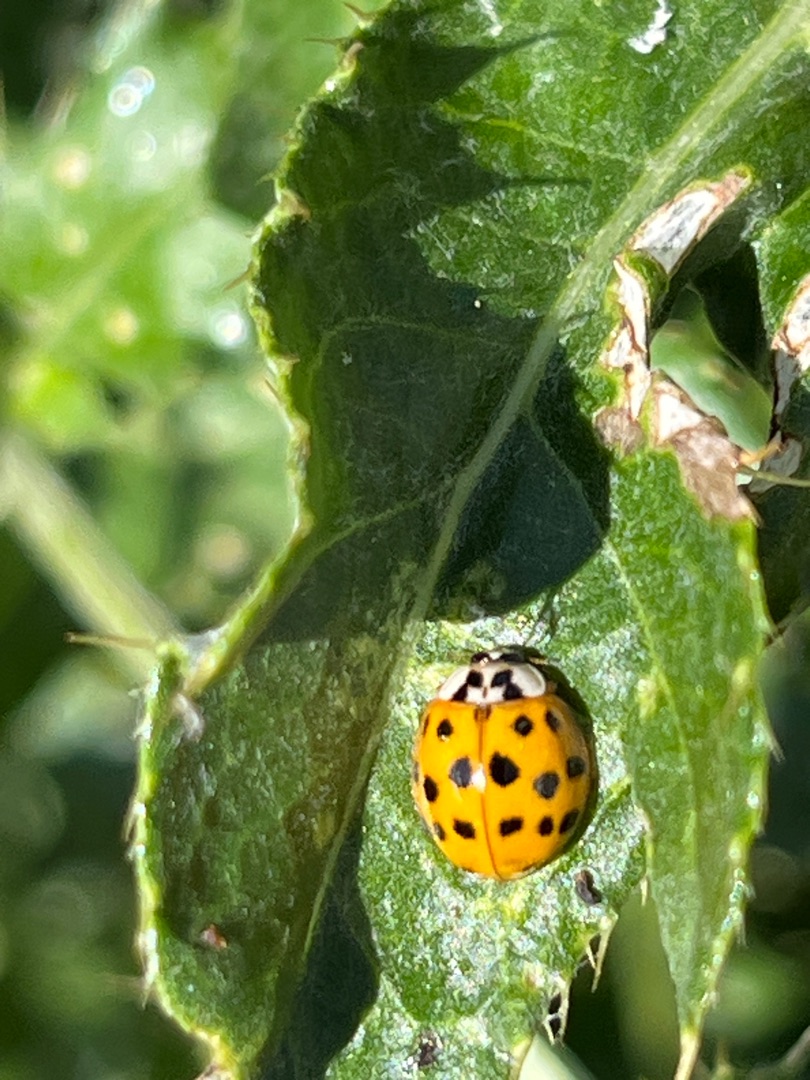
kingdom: Animalia
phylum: Arthropoda
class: Insecta
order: Coleoptera
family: Coccinellidae
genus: Harmonia
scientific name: Harmonia axyridis
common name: Harlekinmariehøne
